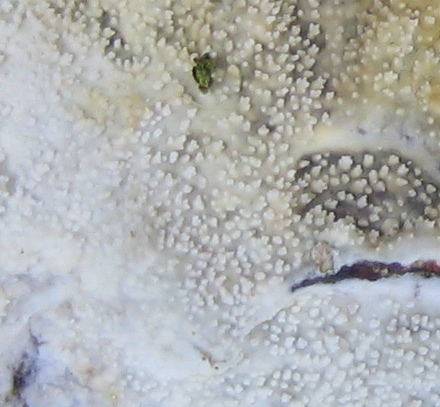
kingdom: Fungi
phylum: Basidiomycota
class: Agaricomycetes
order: Corticiales
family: Corticiaceae
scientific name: Corticiaceae
